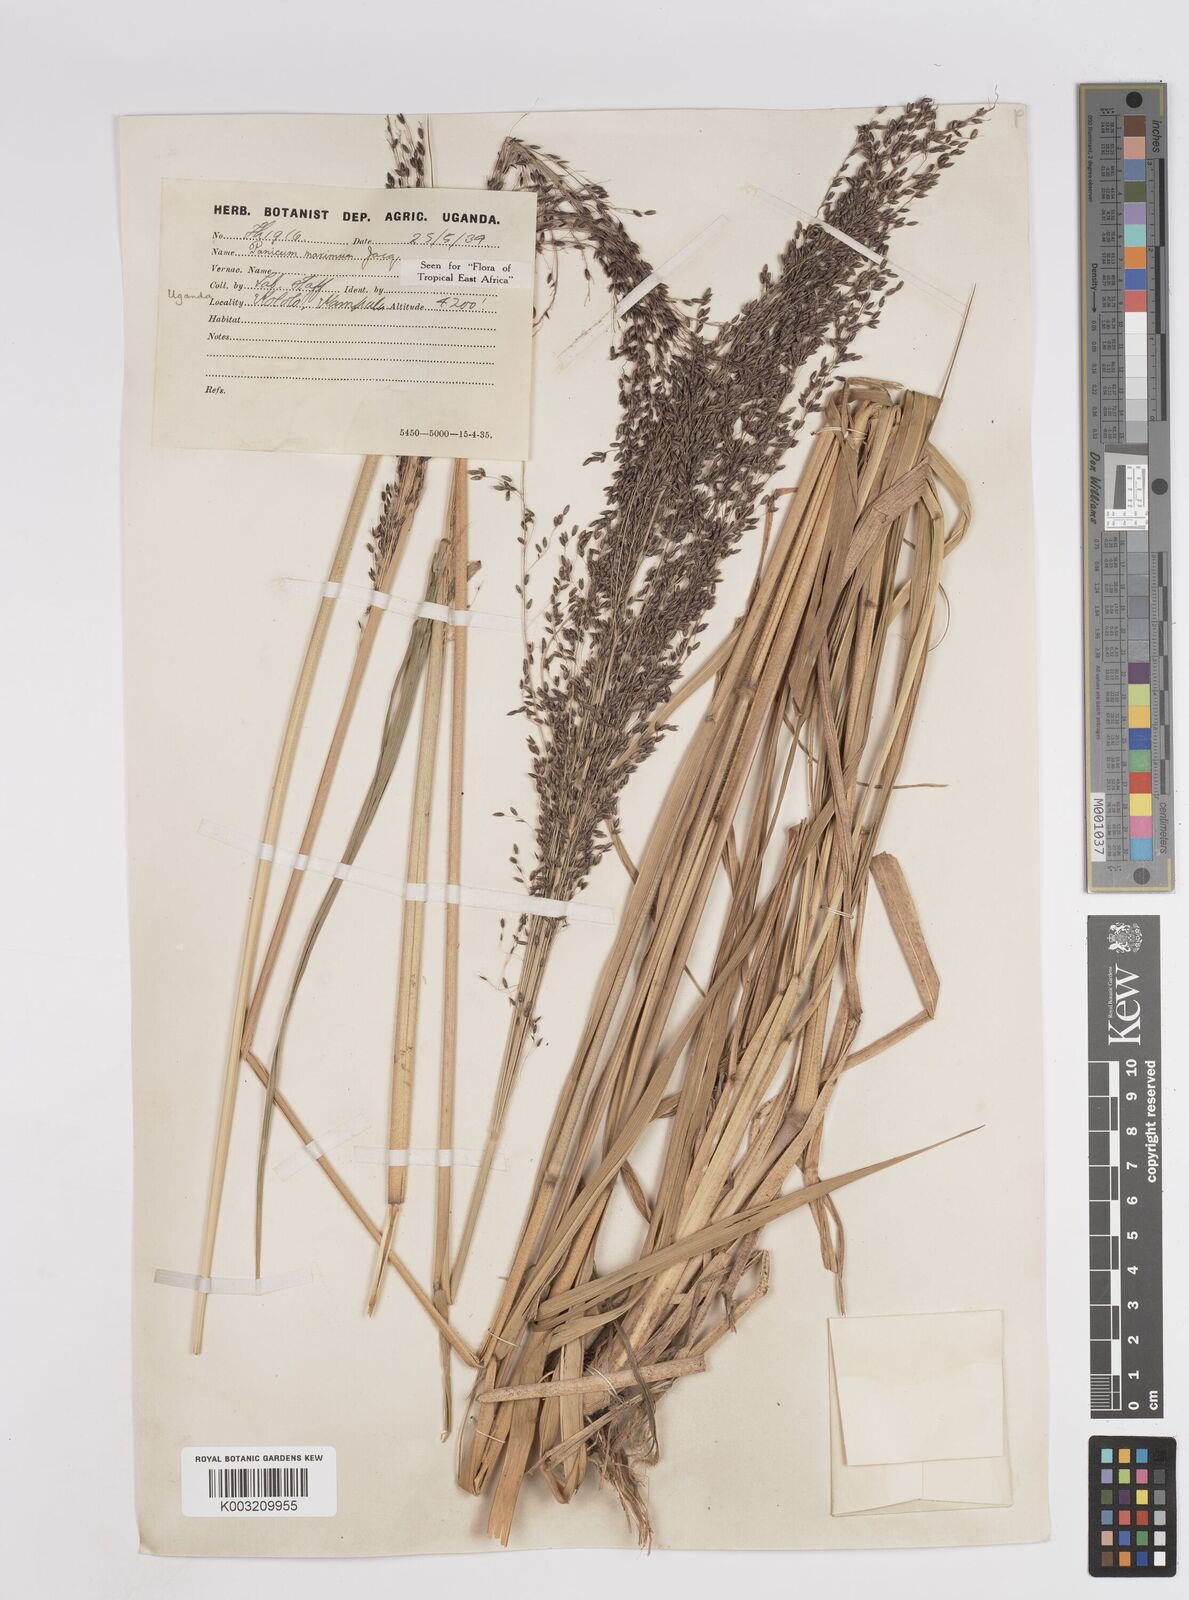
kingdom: Plantae
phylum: Tracheophyta
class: Liliopsida
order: Poales
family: Poaceae
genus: Megathyrsus
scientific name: Megathyrsus maximus
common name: Guineagrass
